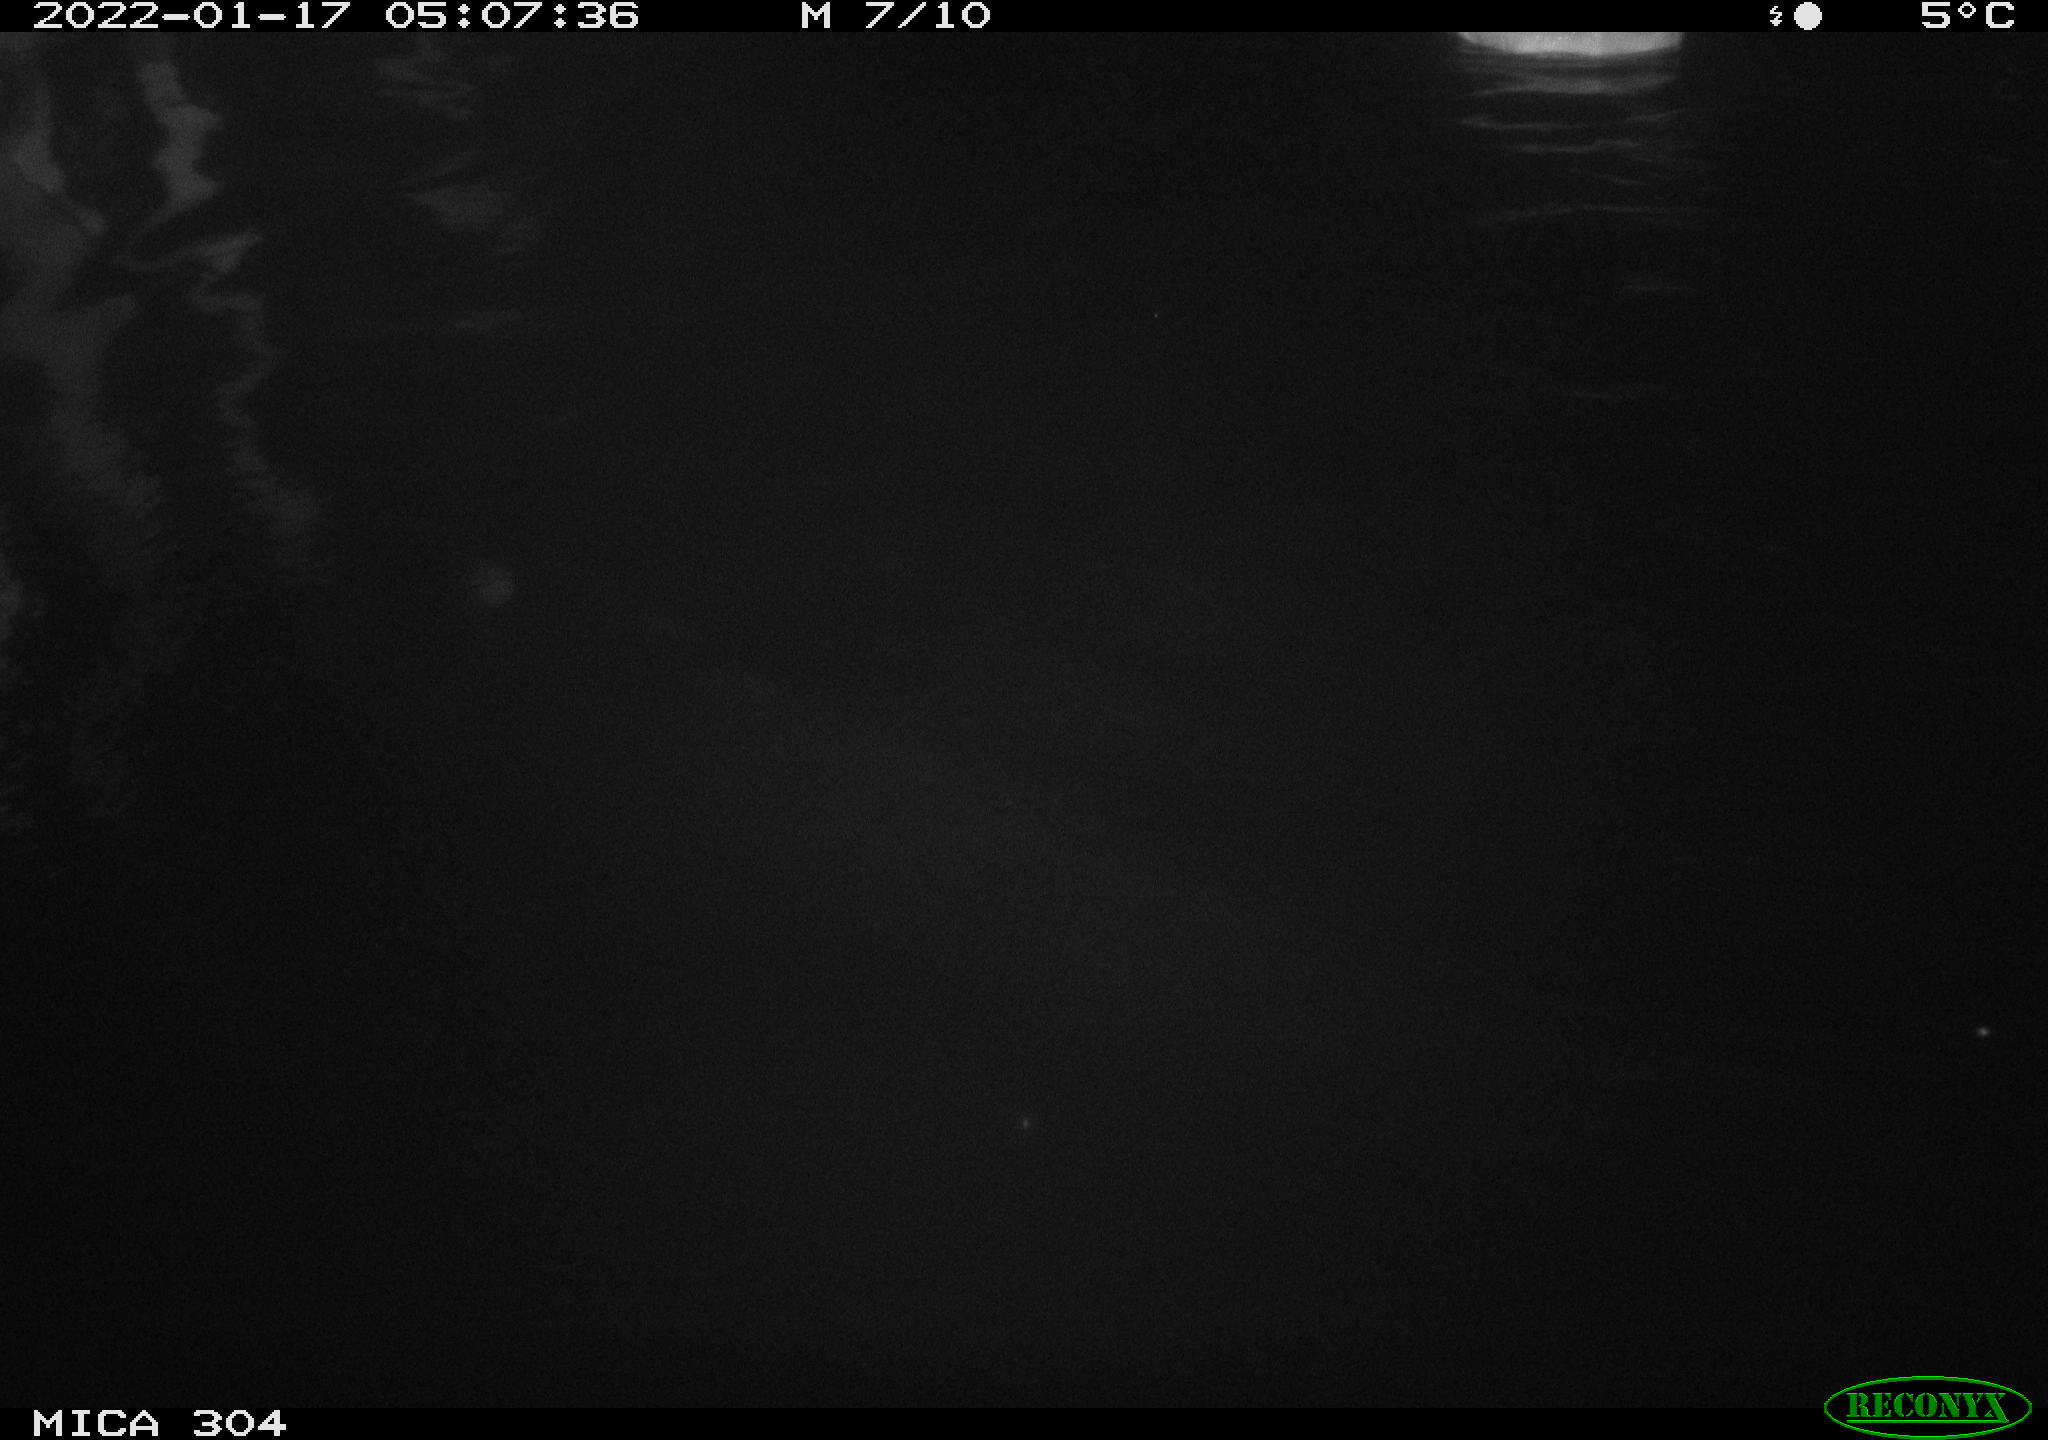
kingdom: Animalia
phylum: Chordata
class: Aves
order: Anseriformes
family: Anatidae
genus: Anas
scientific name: Anas platyrhynchos
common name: Mallard
